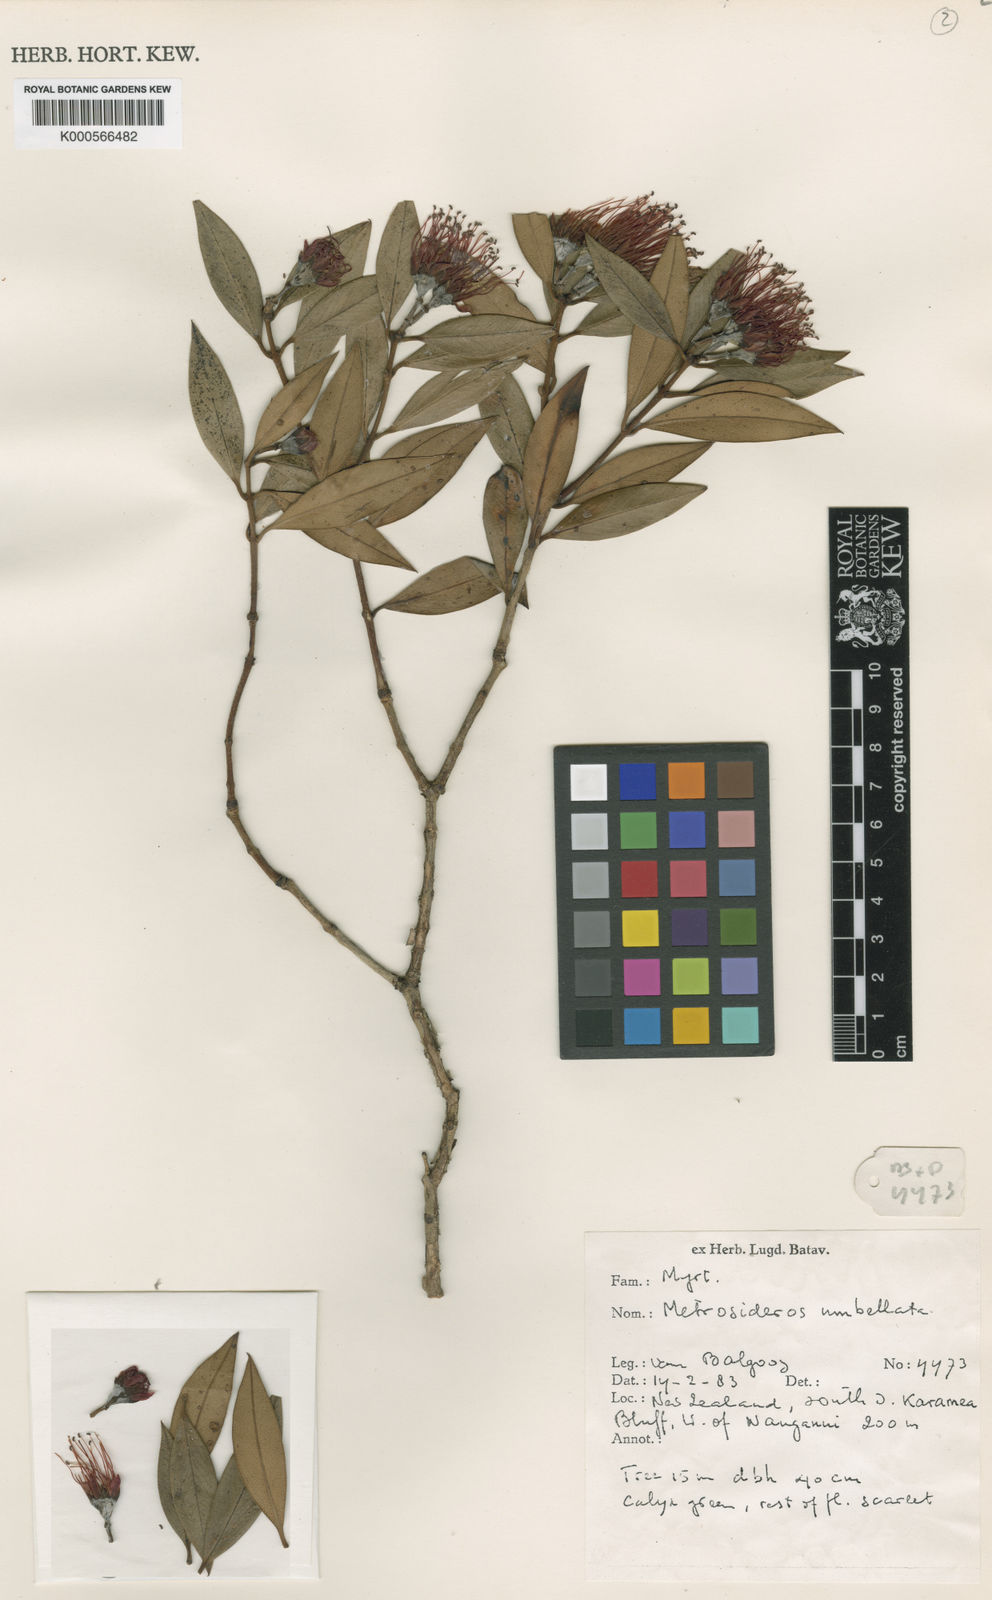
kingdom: Plantae
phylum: Tracheophyta
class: Magnoliopsida
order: Myrtales
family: Myrtaceae
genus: Metrosideros
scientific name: Metrosideros umbellata
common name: Southern rata
